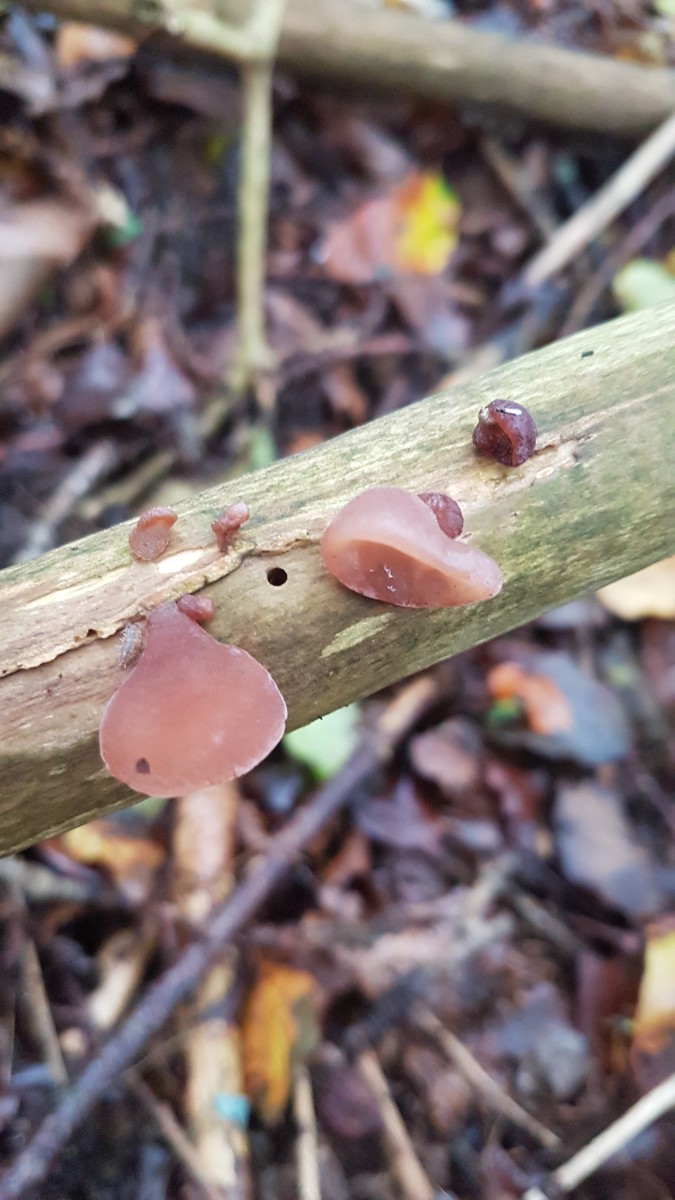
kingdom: Fungi
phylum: Basidiomycota
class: Agaricomycetes
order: Auriculariales
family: Auriculariaceae
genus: Auricularia
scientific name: Auricularia auricula-judae
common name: almindelig judasøre
